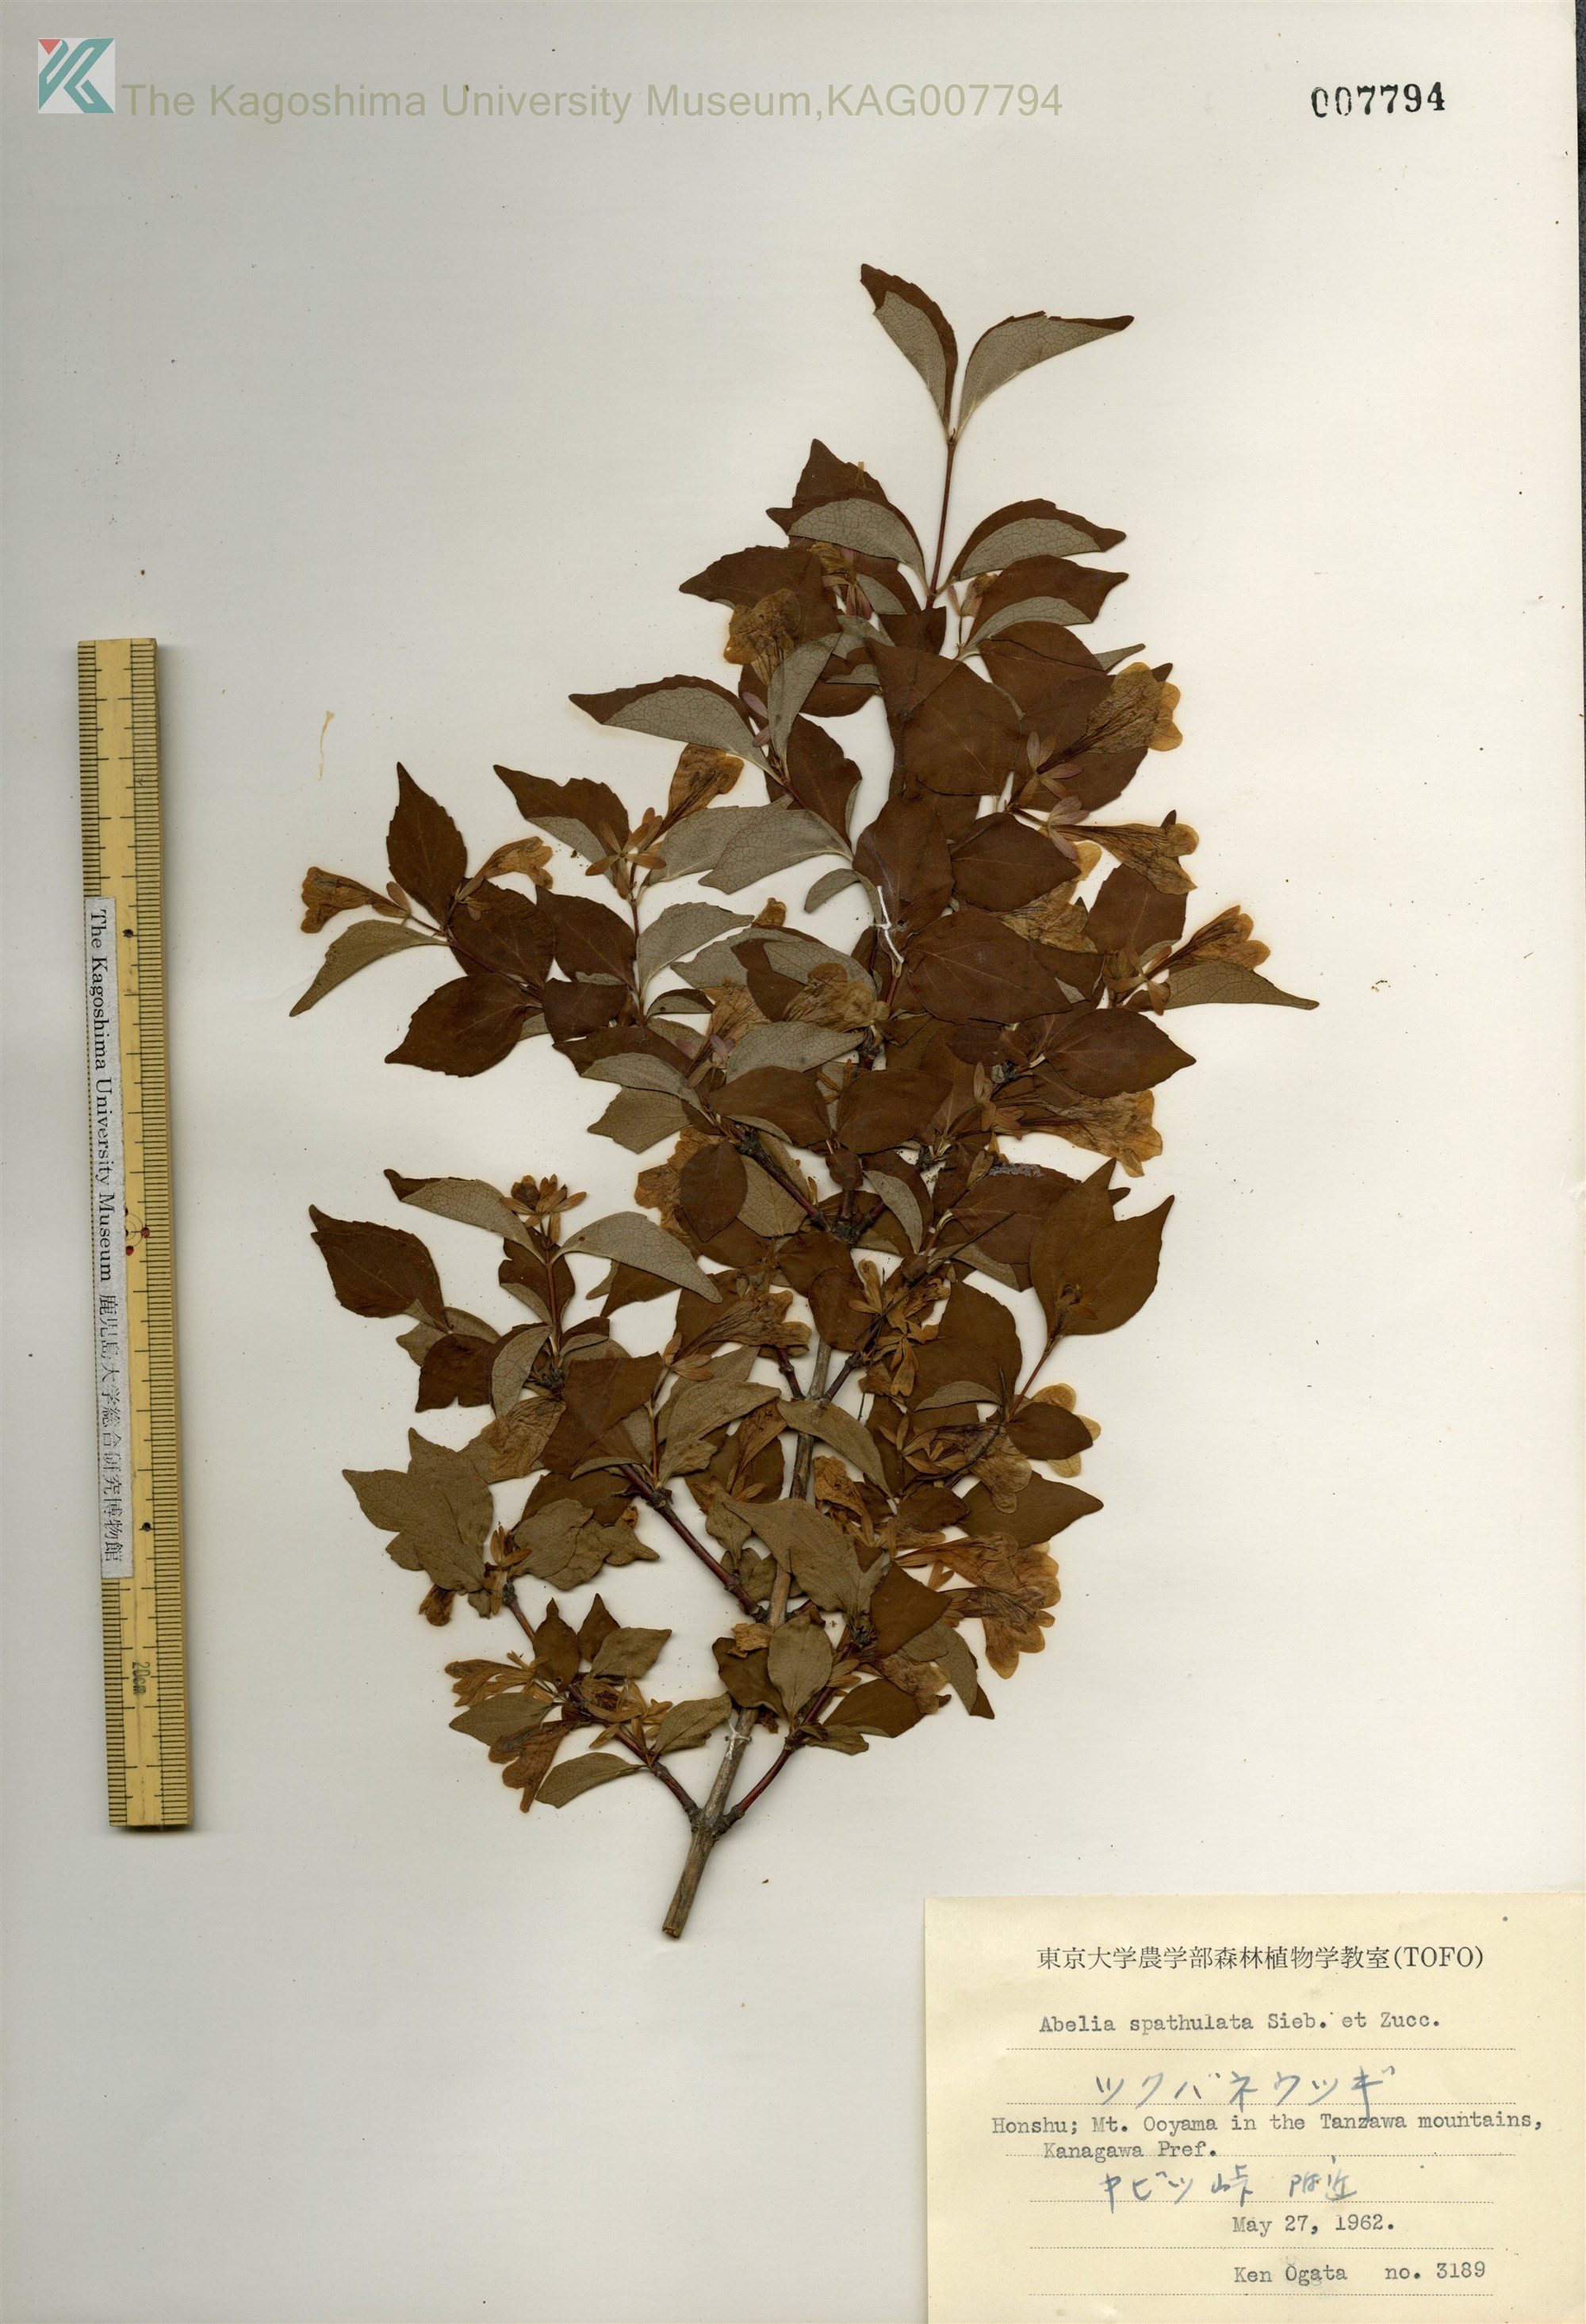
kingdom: Plantae
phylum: Tracheophyta
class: Magnoliopsida
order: Dipsacales
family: Caprifoliaceae
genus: Diabelia
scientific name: Diabelia spathulata
